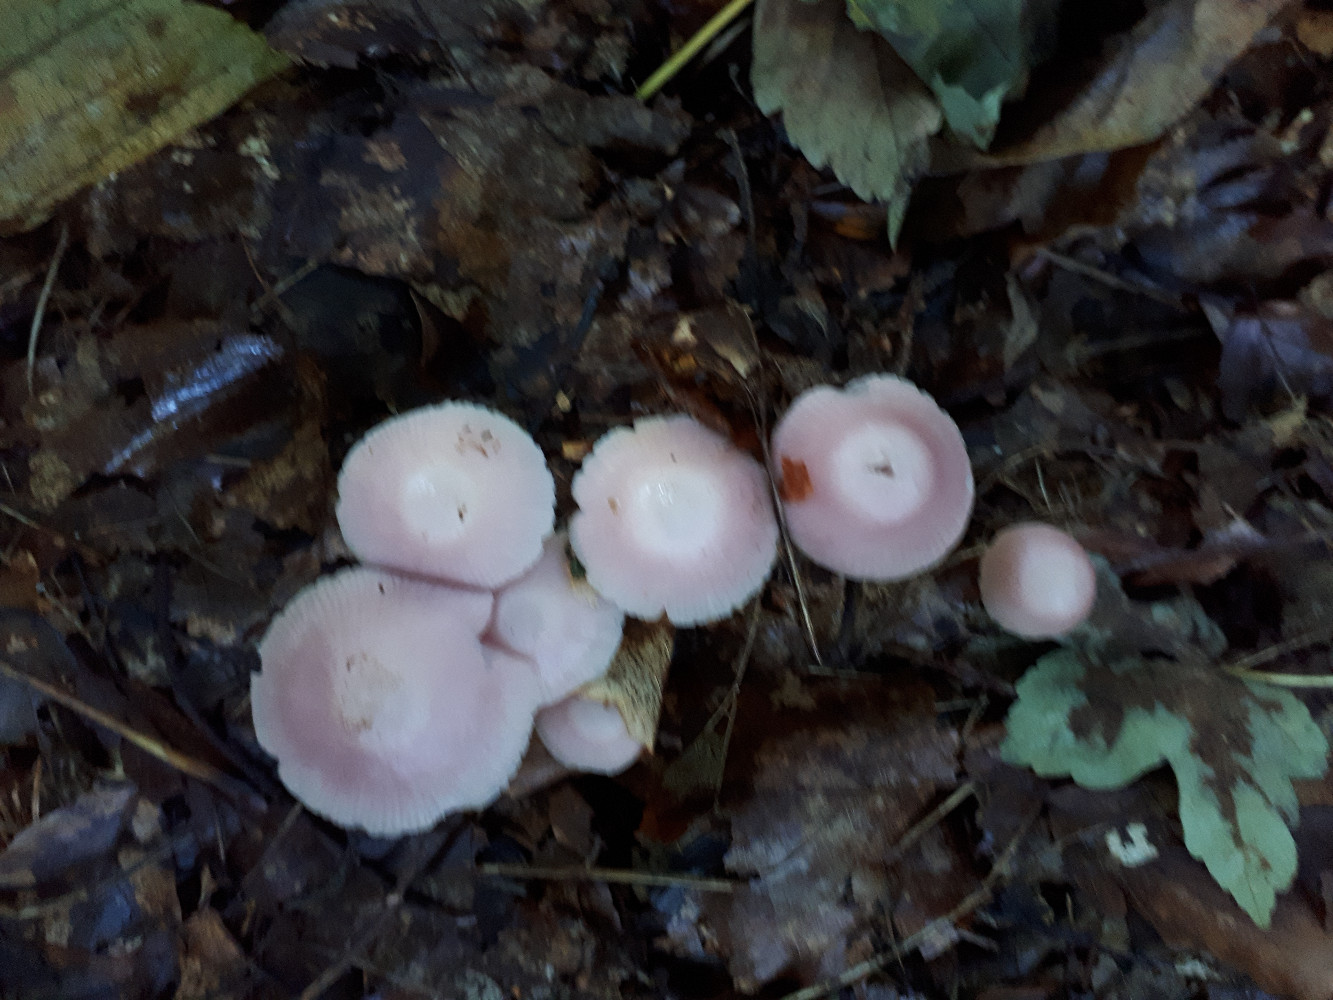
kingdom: Fungi
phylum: Basidiomycota
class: Agaricomycetes
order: Agaricales
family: Mycenaceae
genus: Mycena
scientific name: Mycena rosea
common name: rosa huesvamp
